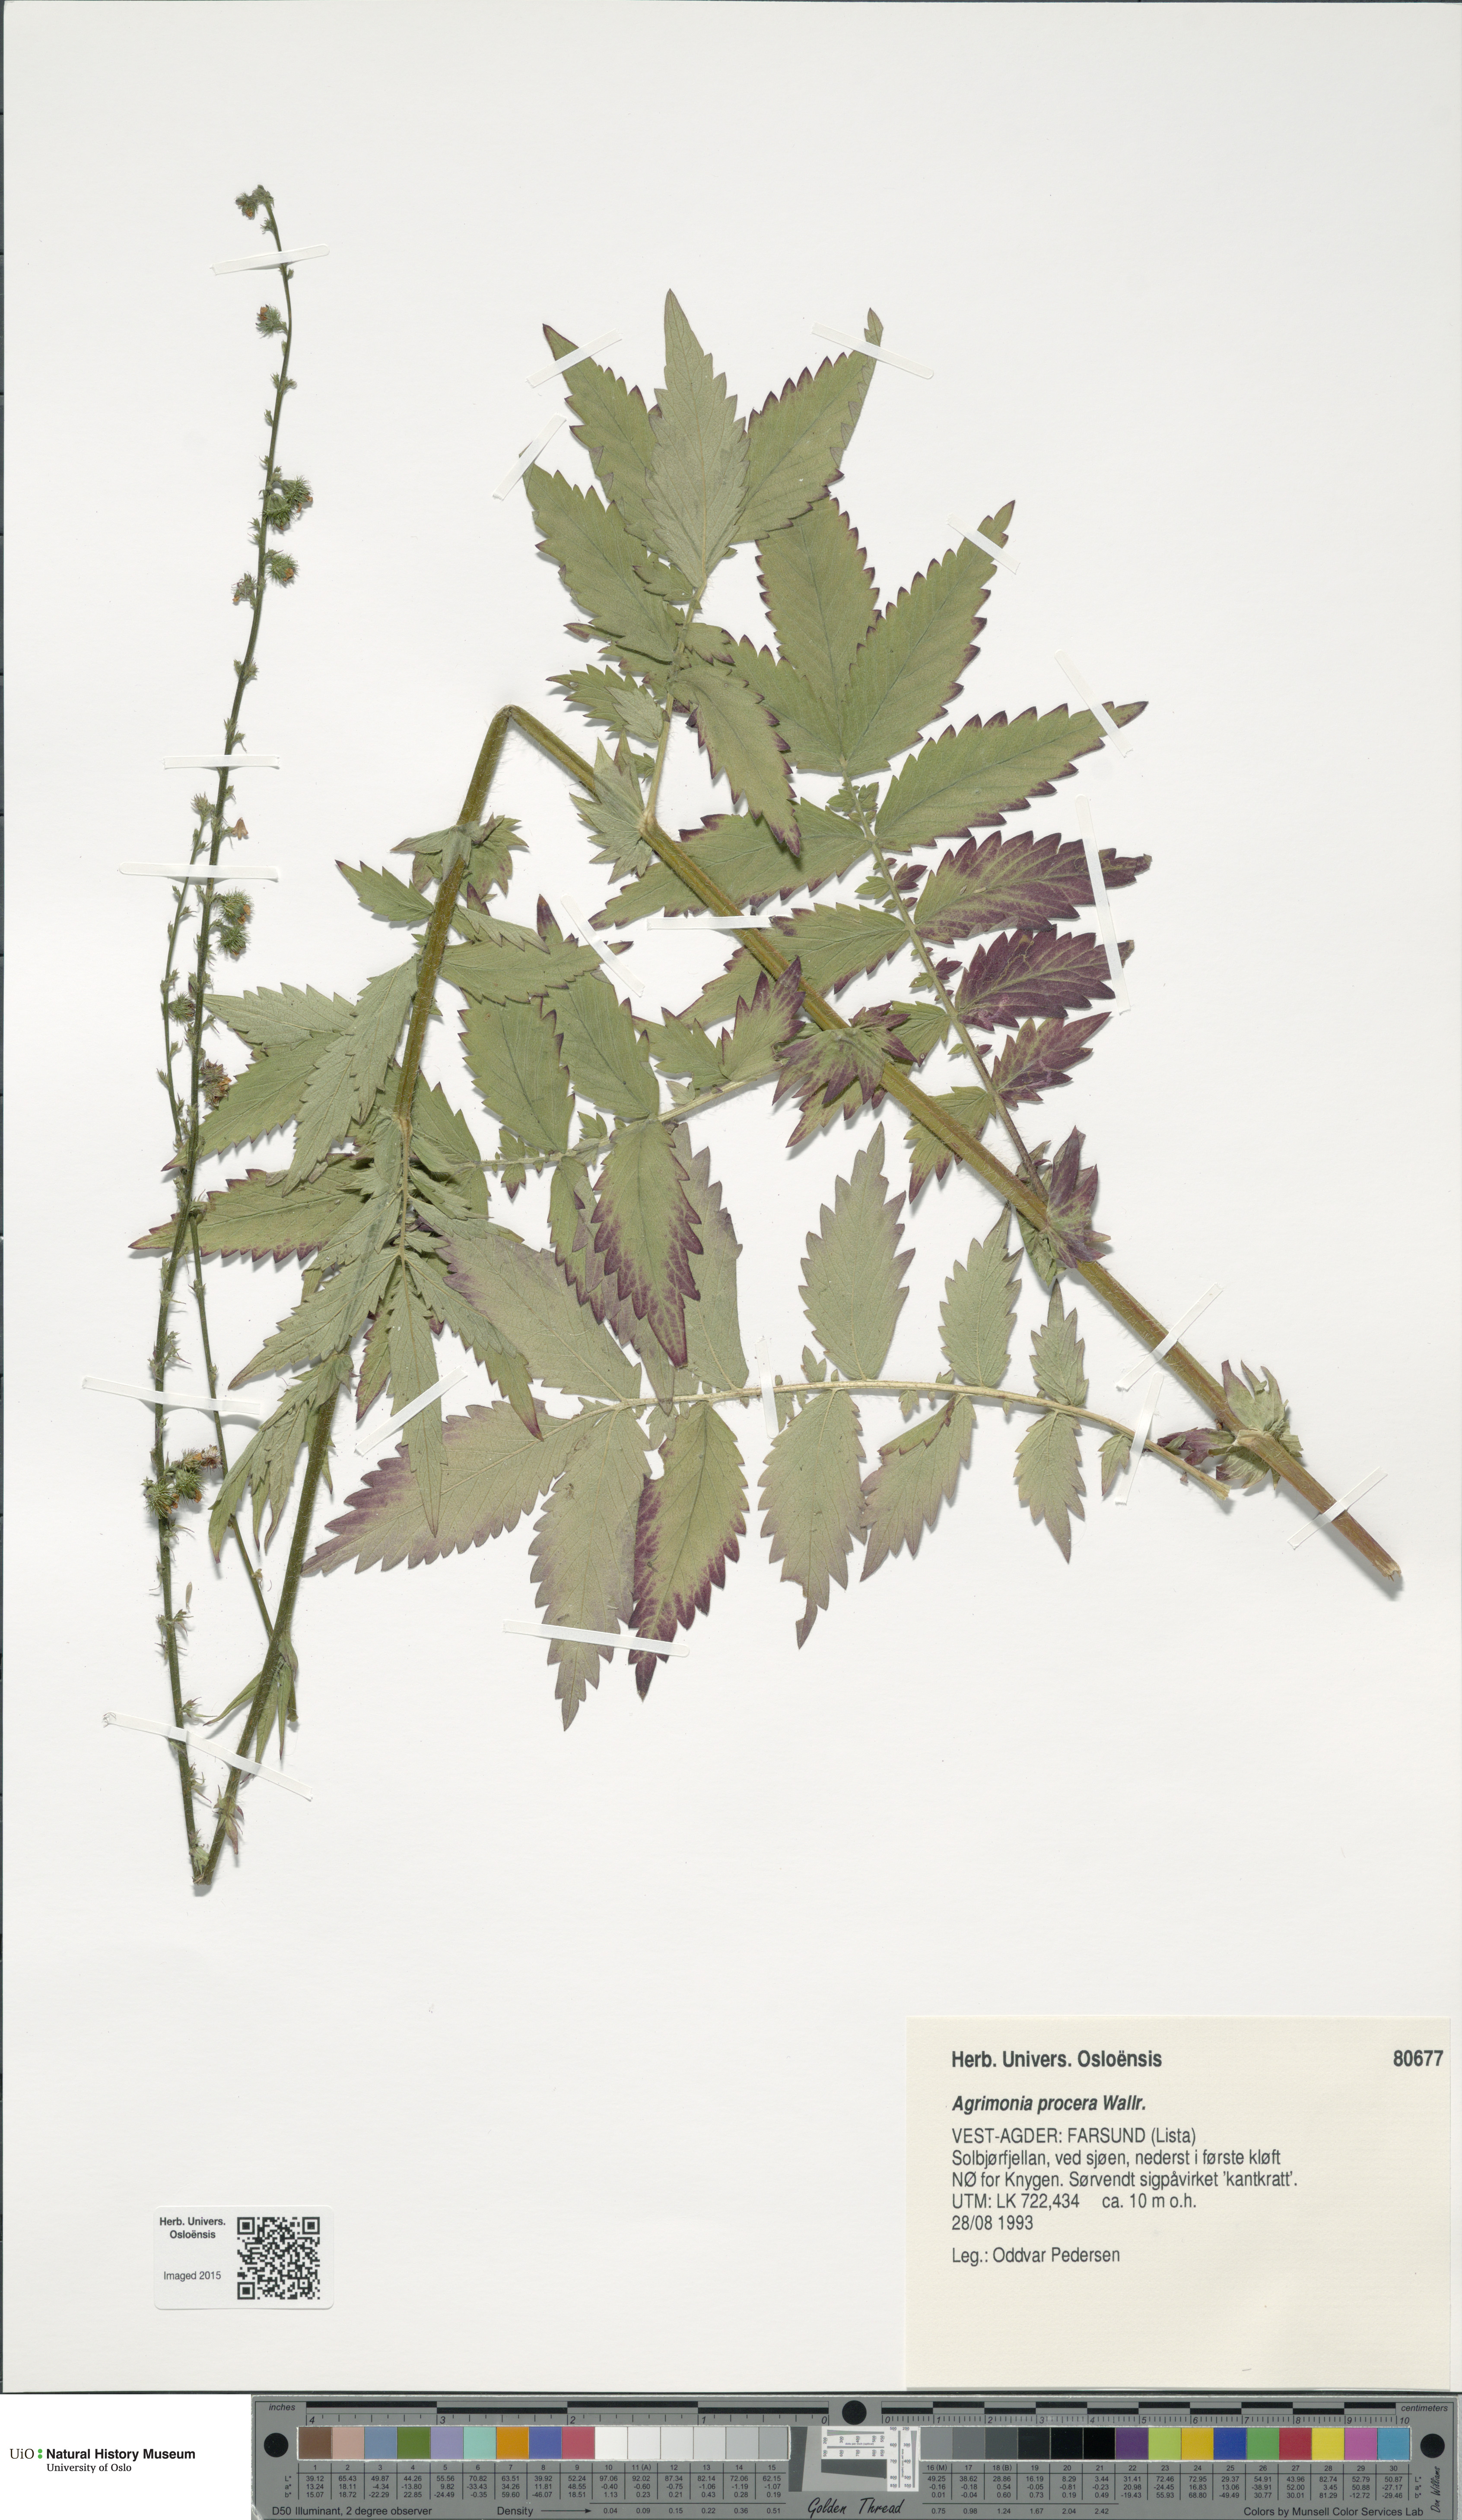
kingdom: Plantae
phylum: Tracheophyta
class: Magnoliopsida
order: Rosales
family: Rosaceae
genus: Agrimonia
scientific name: Agrimonia procera
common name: Fragrant agrimony
